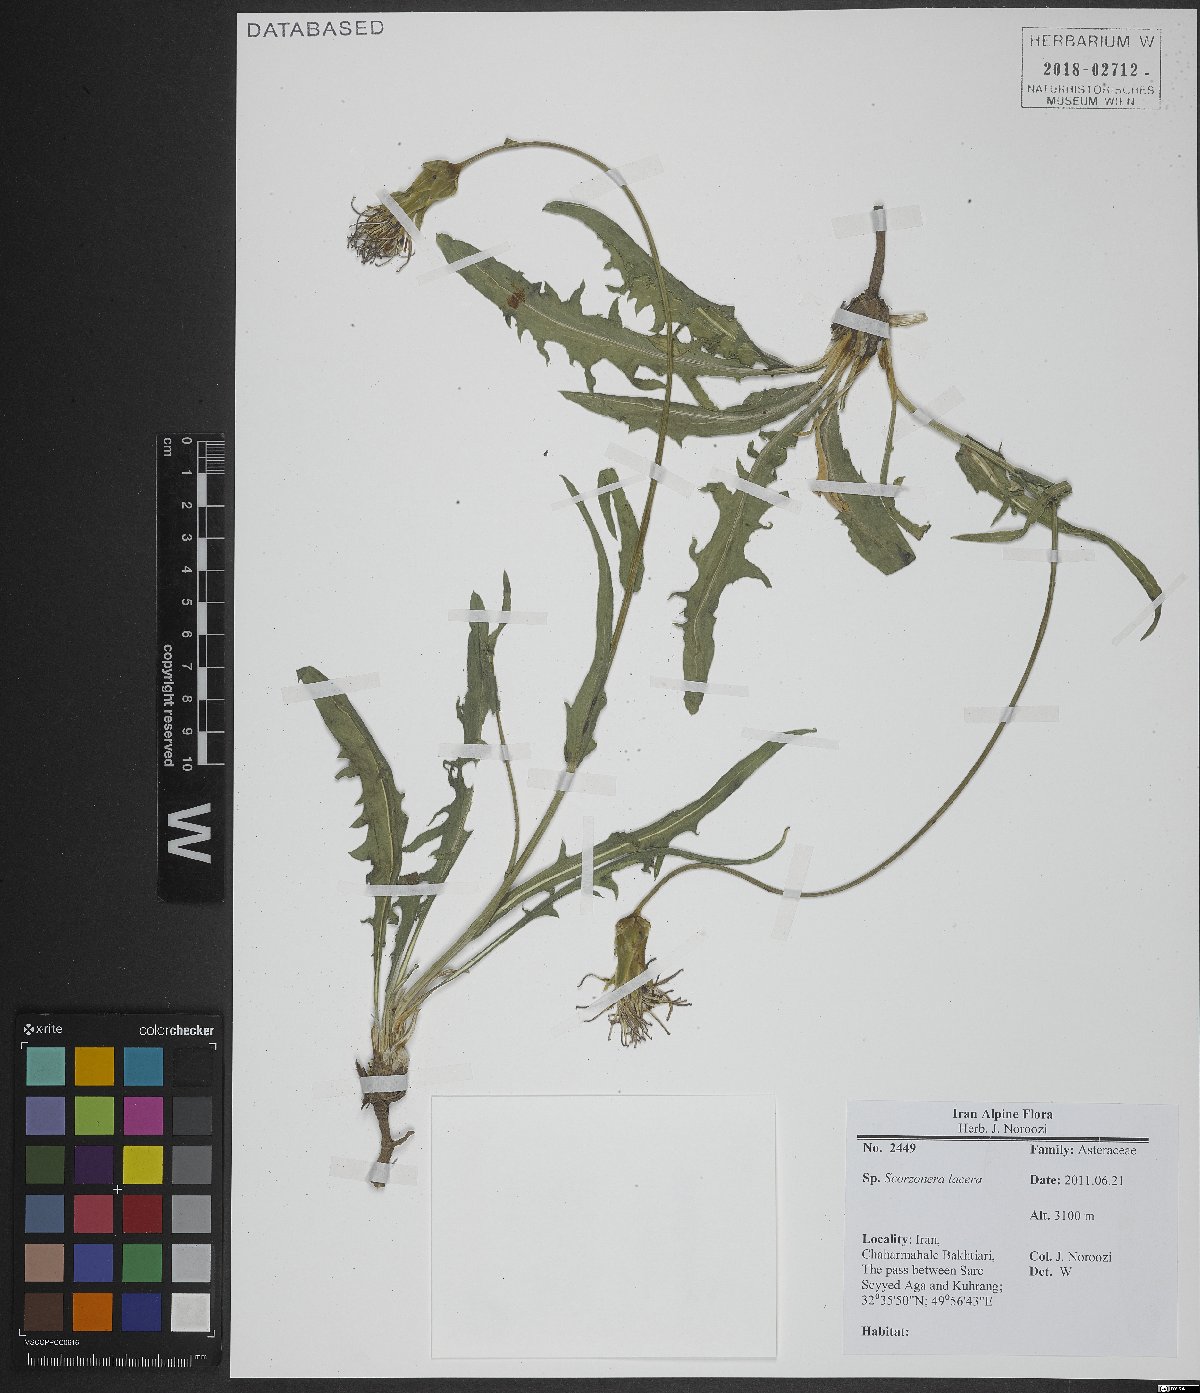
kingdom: Plantae
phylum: Tracheophyta
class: Magnoliopsida
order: Asterales
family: Asteraceae
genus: Aslia
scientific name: Aslia lacera
